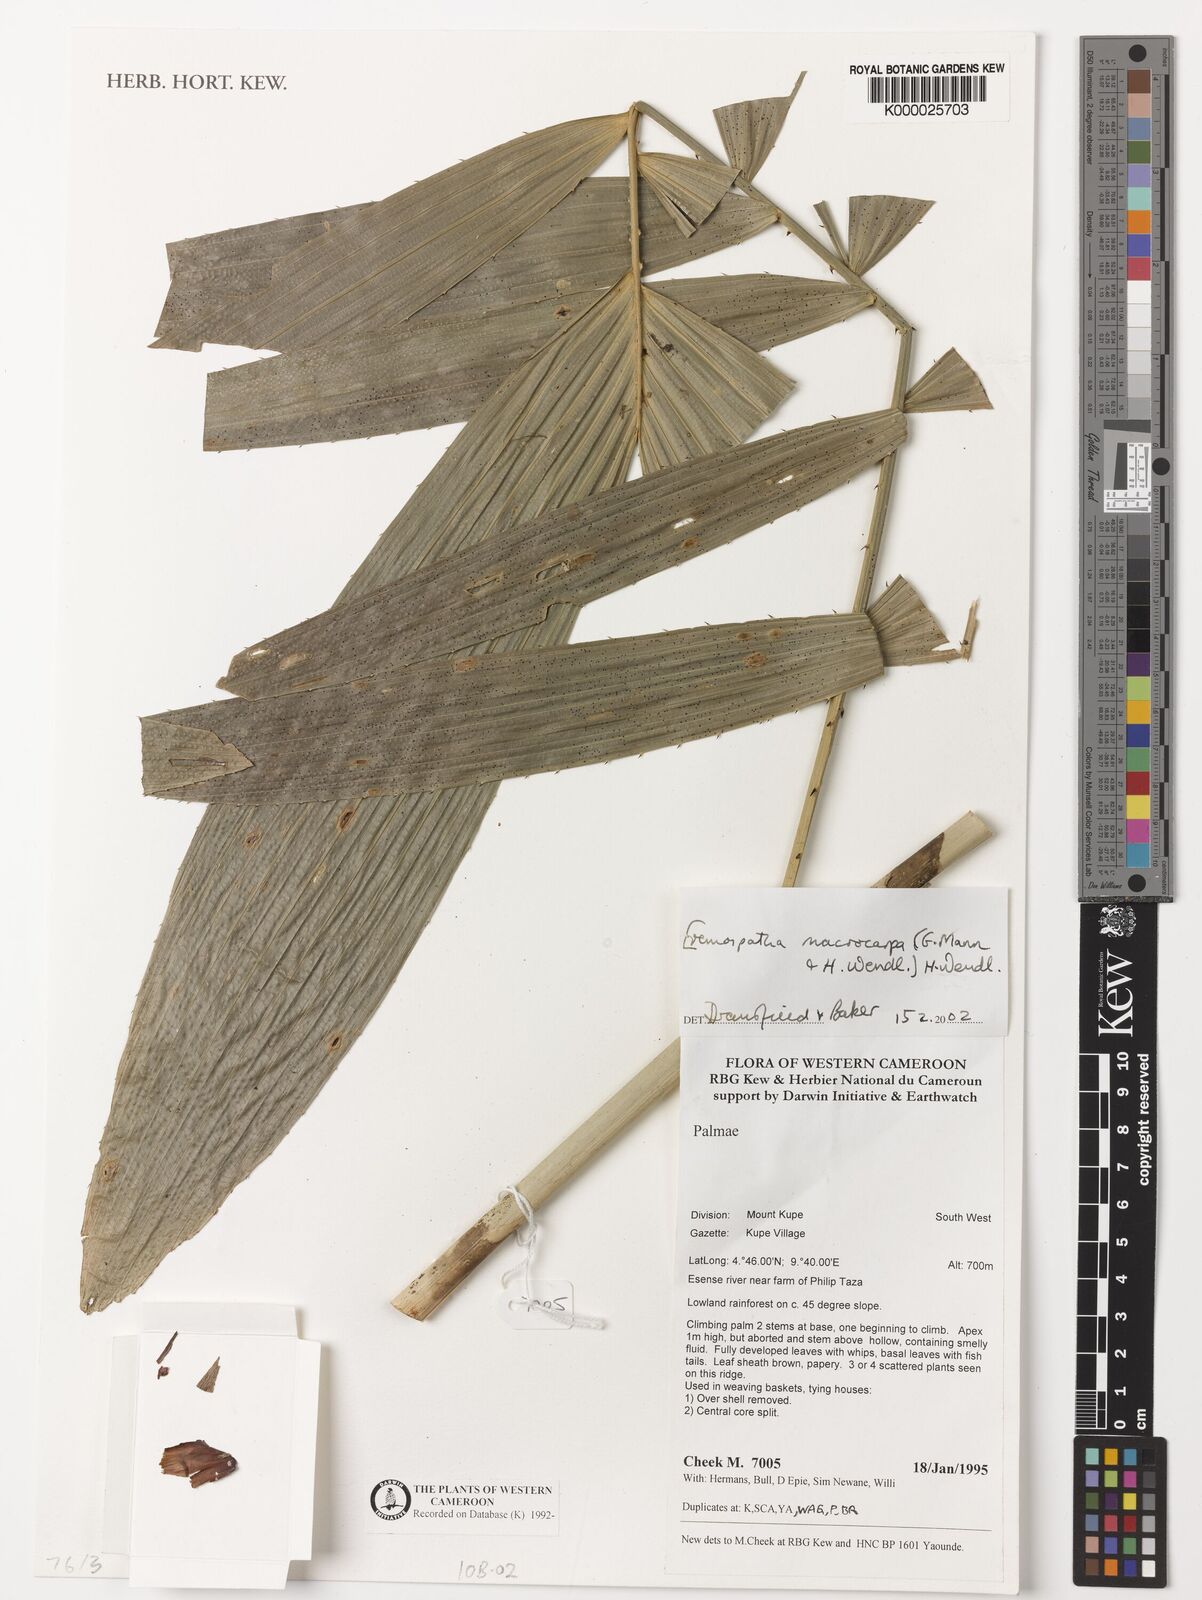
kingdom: Plantae
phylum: Tracheophyta
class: Liliopsida
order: Arecales
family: Arecaceae
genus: Eremospatha
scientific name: Eremospatha
